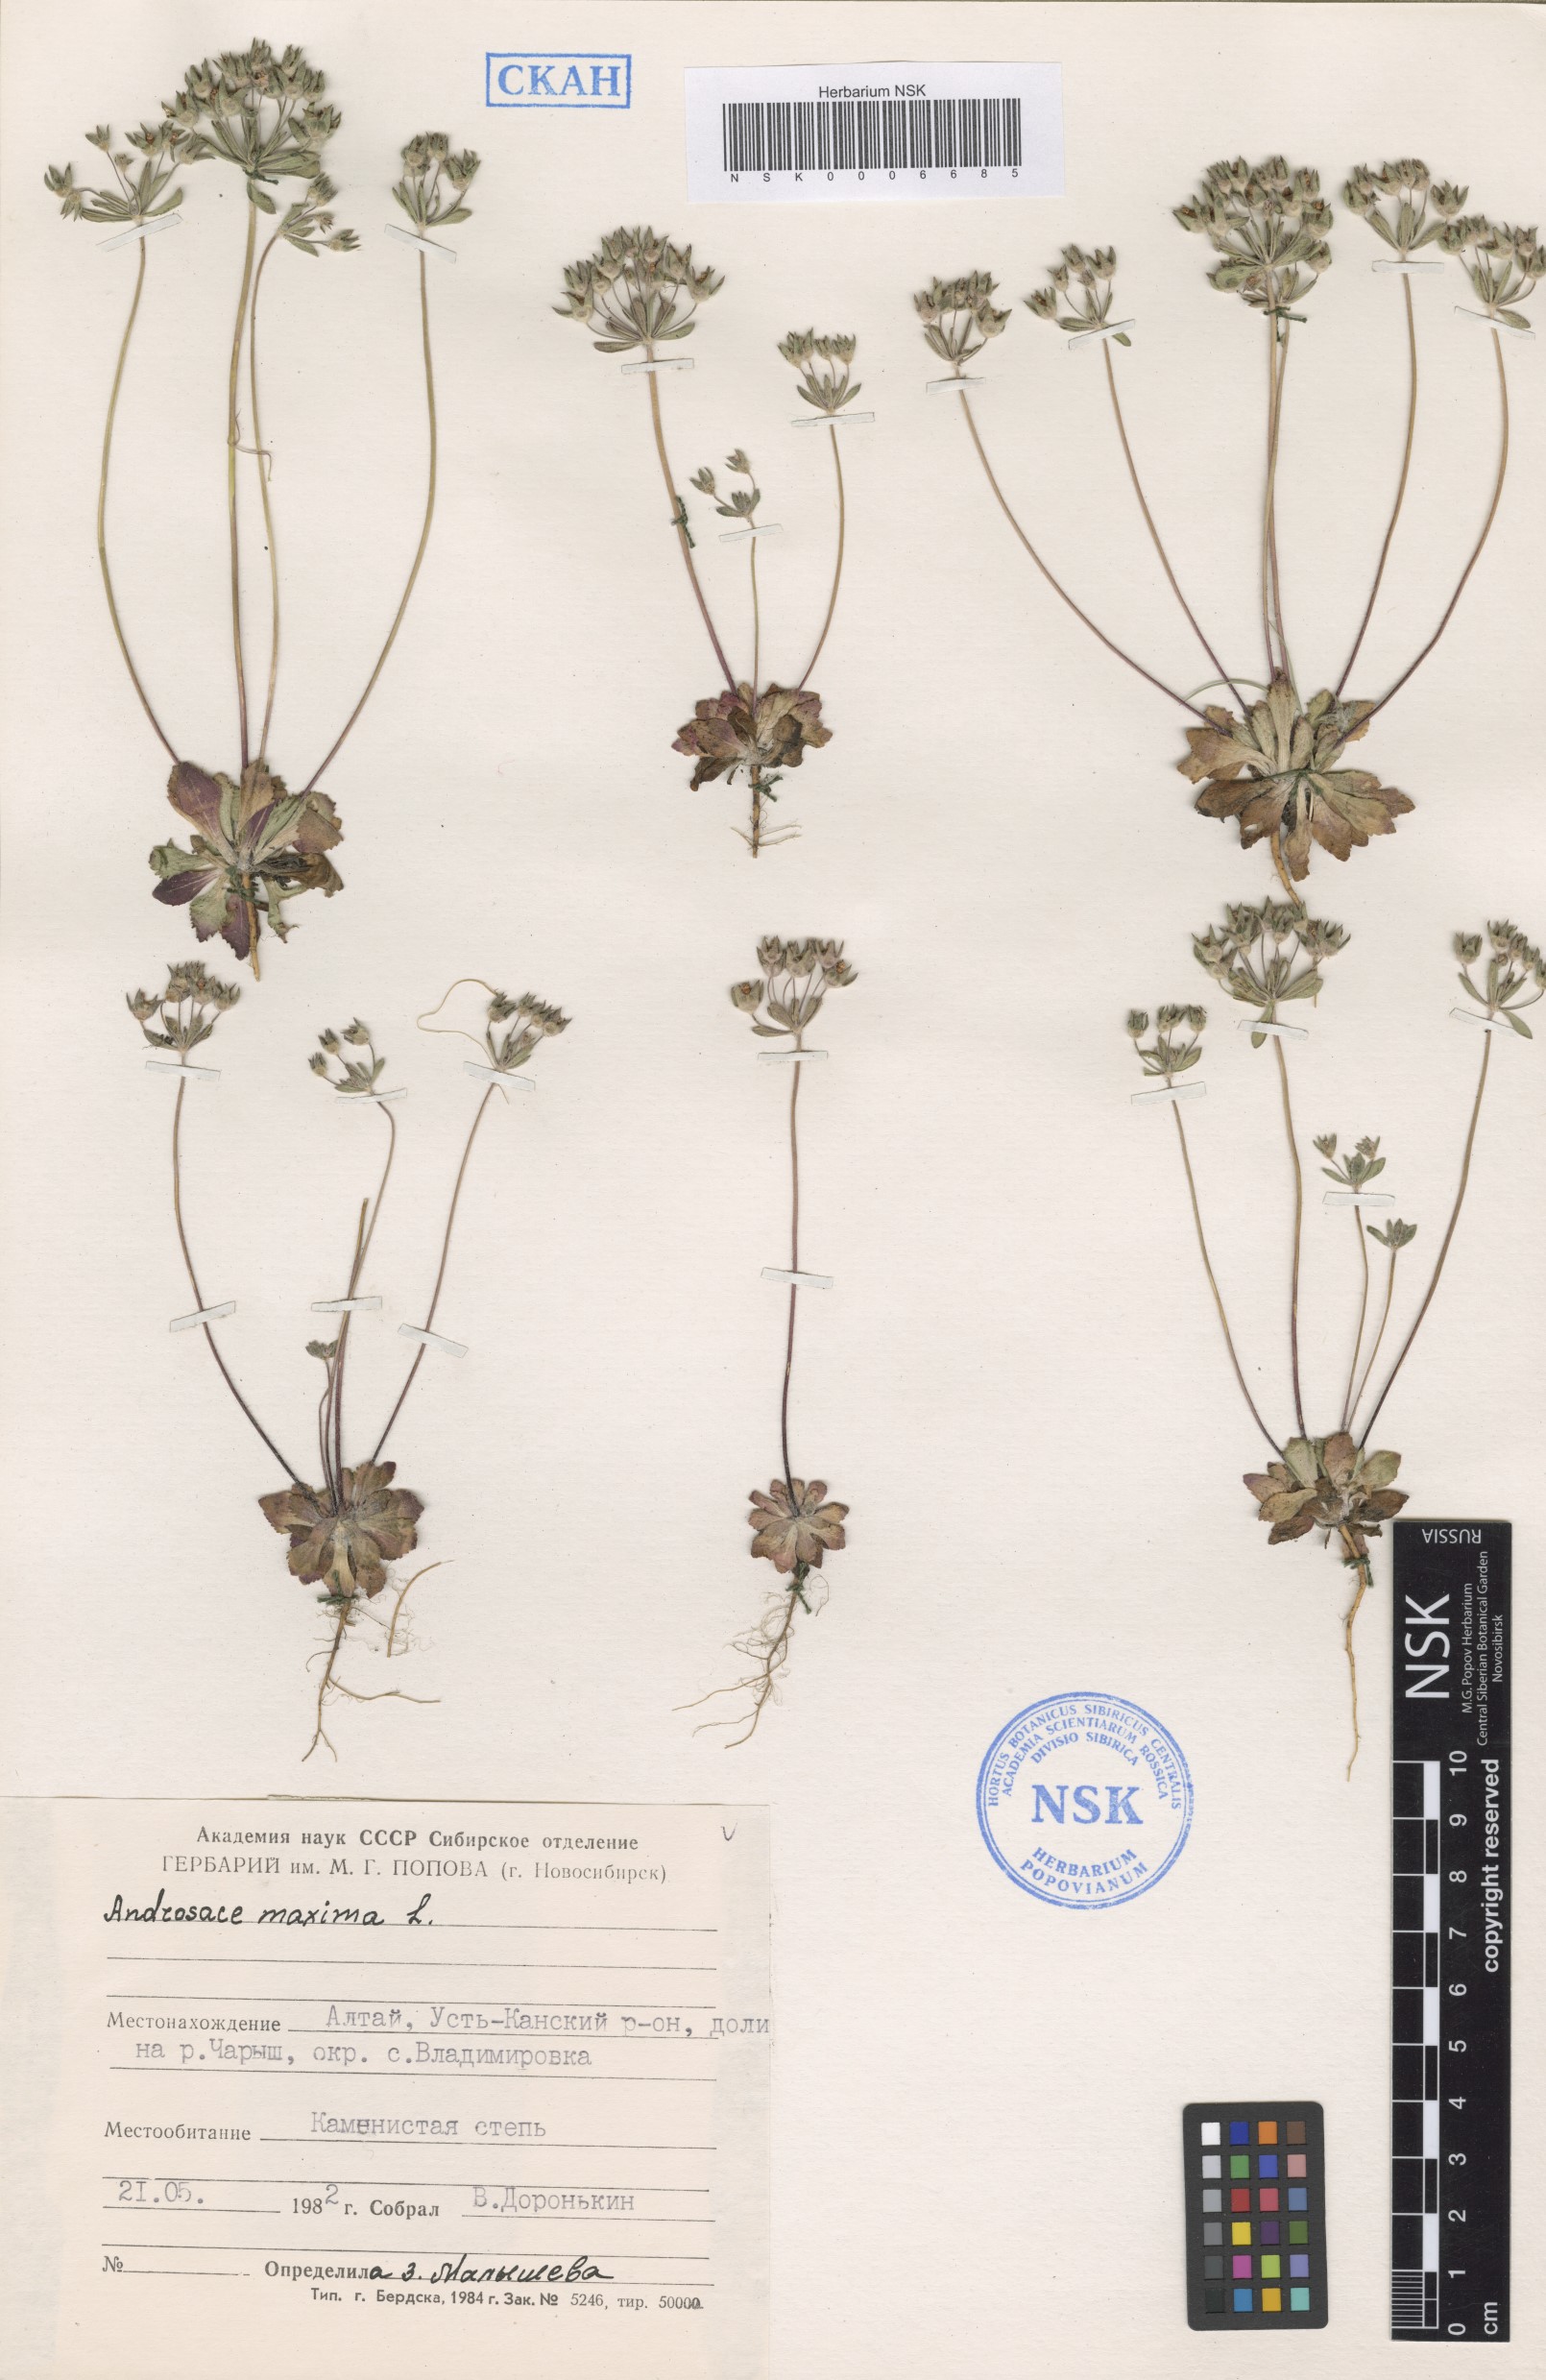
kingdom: Plantae
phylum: Tracheophyta
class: Magnoliopsida
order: Ericales
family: Primulaceae
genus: Androsace
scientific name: Androsace maxima
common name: Annual androsace
